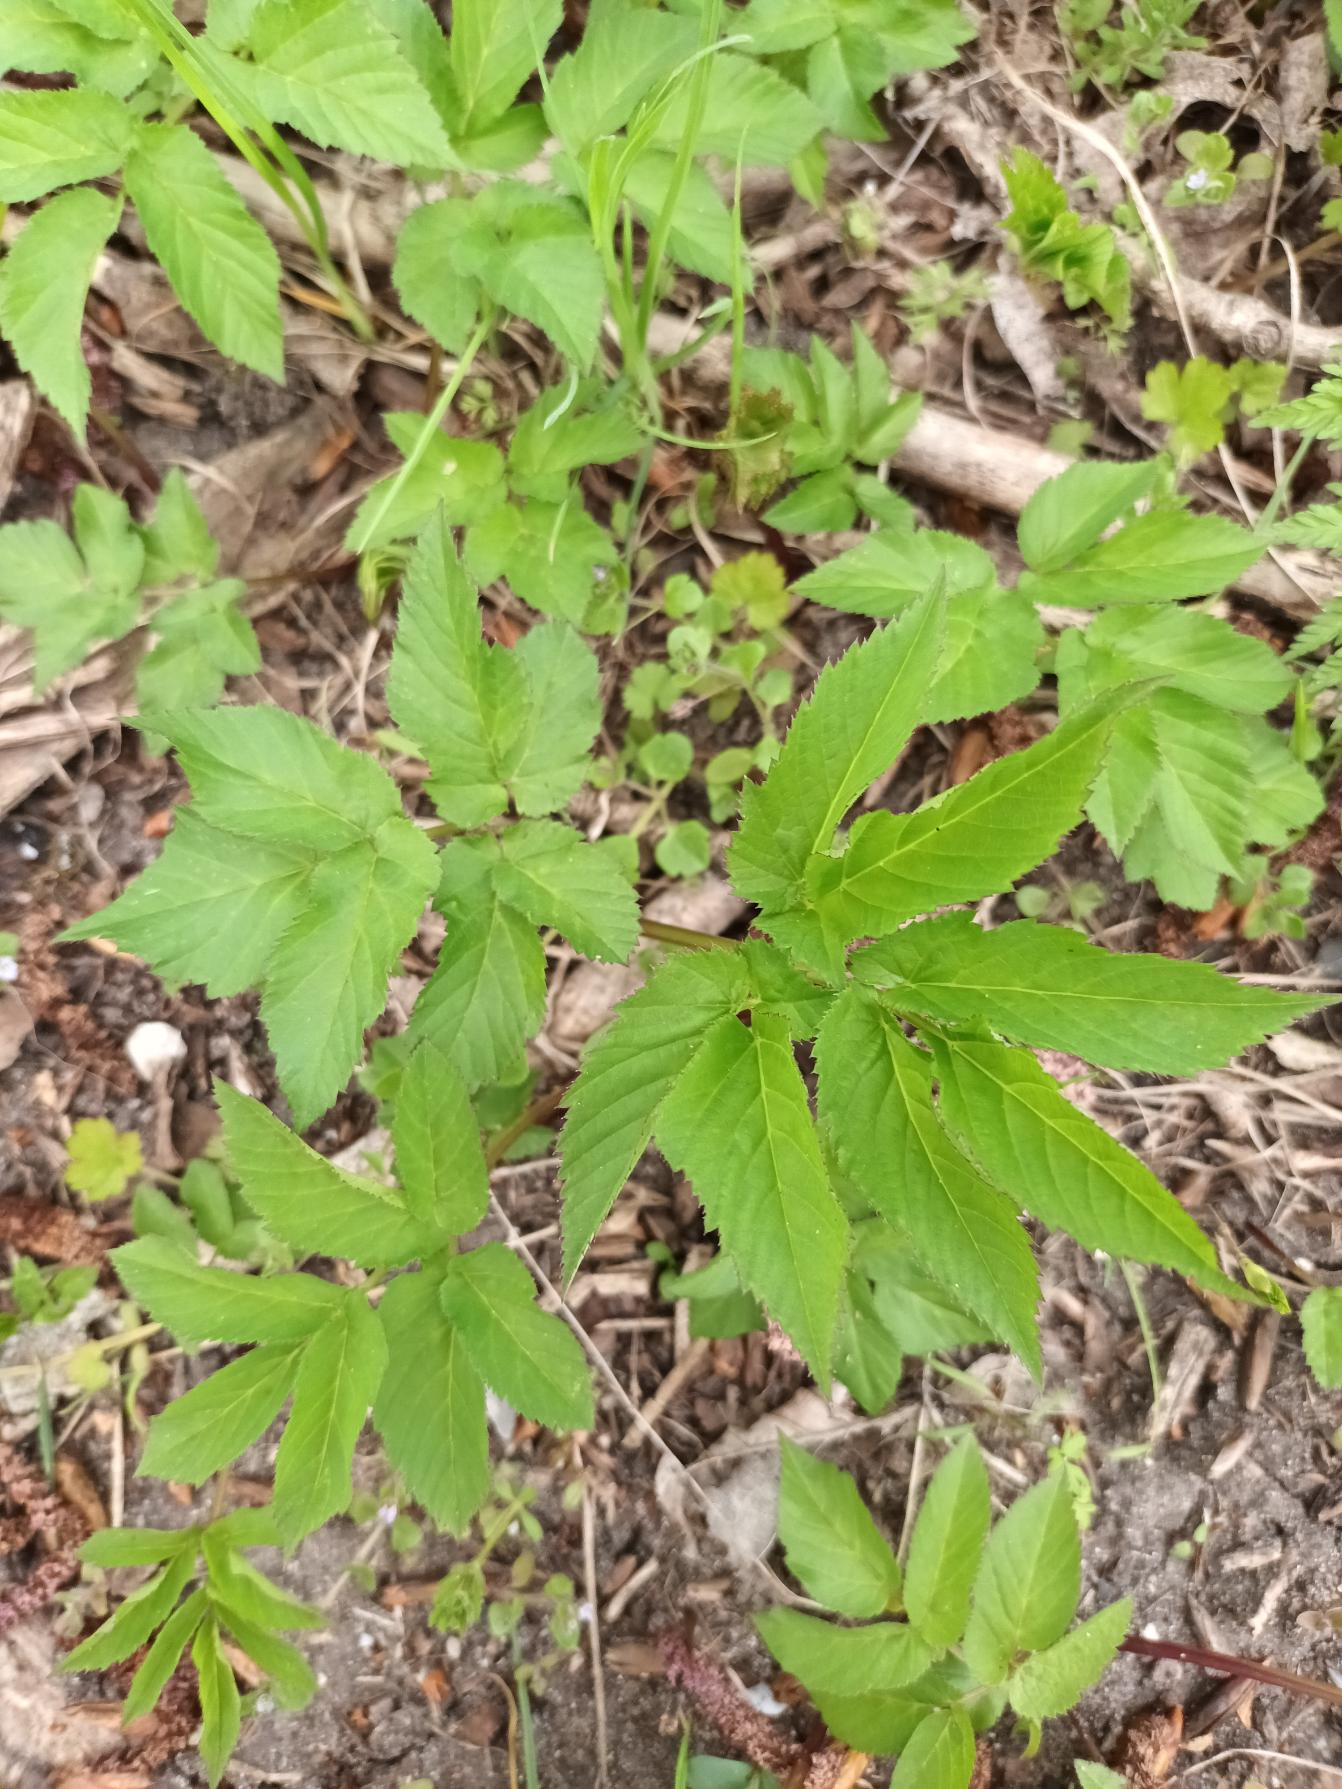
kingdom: Plantae
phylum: Tracheophyta
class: Magnoliopsida
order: Apiales
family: Apiaceae
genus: Aegopodium
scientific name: Aegopodium podagraria
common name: Skvalderkål
